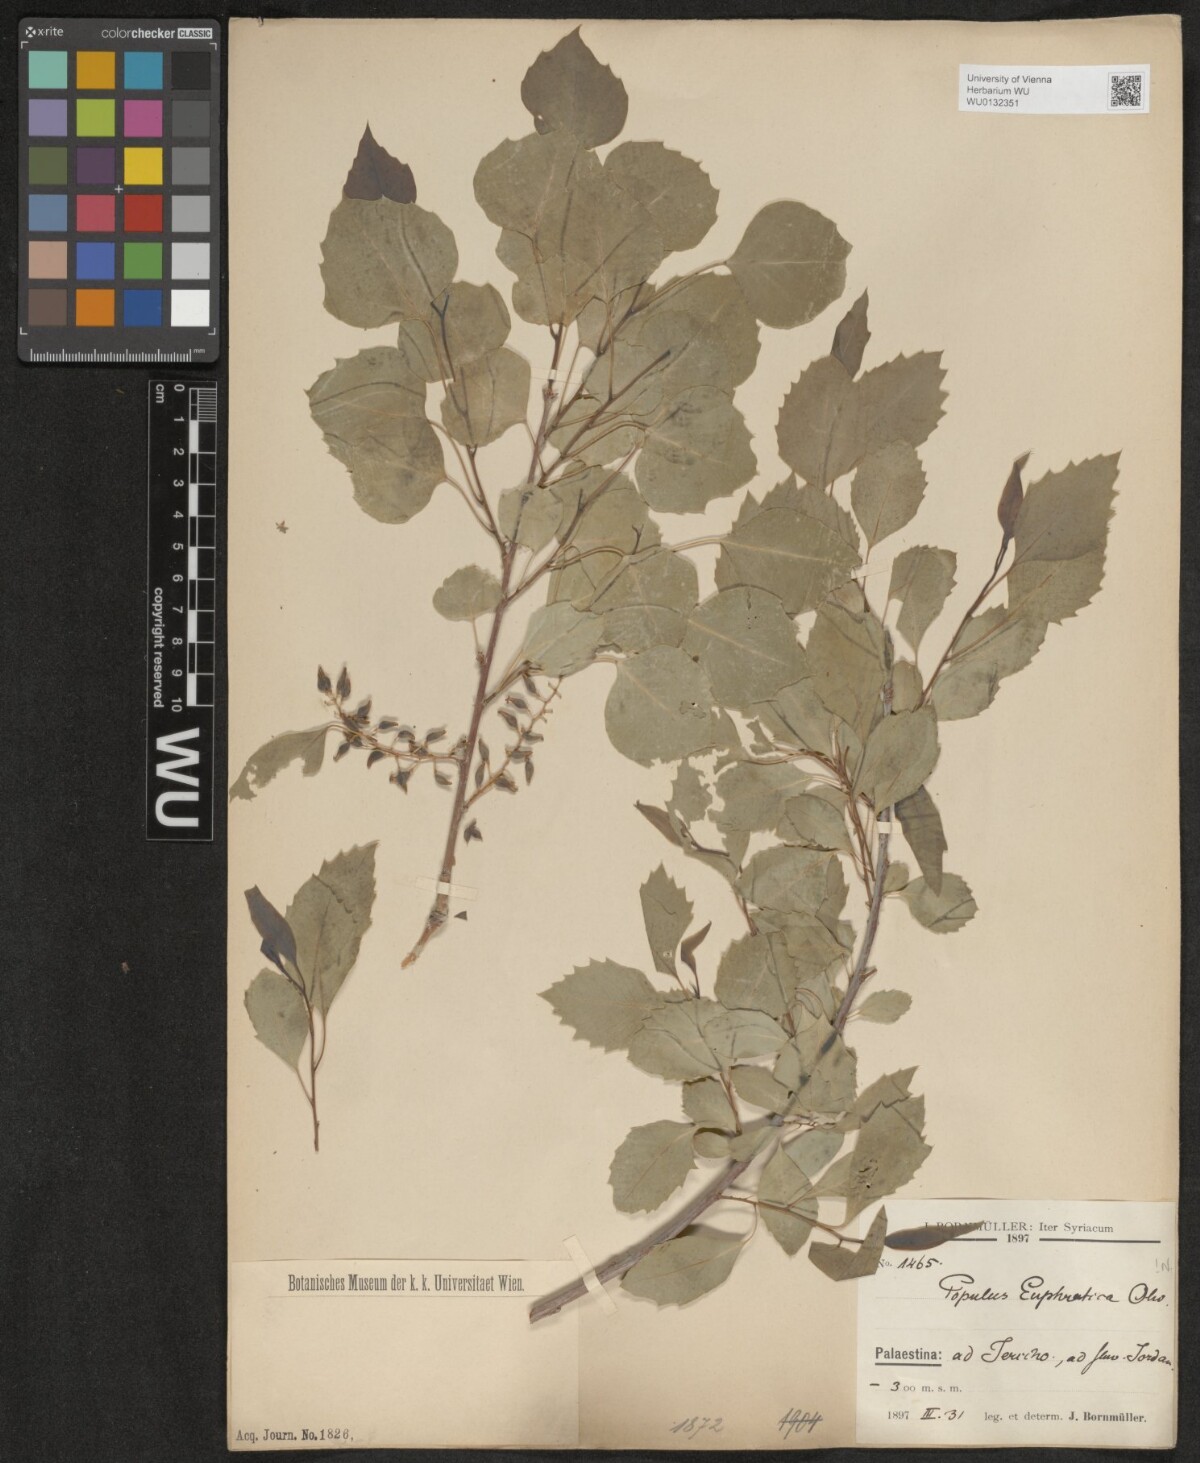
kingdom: Plantae
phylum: Tracheophyta
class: Magnoliopsida
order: Malpighiales
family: Salicaceae
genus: Populus
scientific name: Populus euphratica
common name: Euphrates poplar
